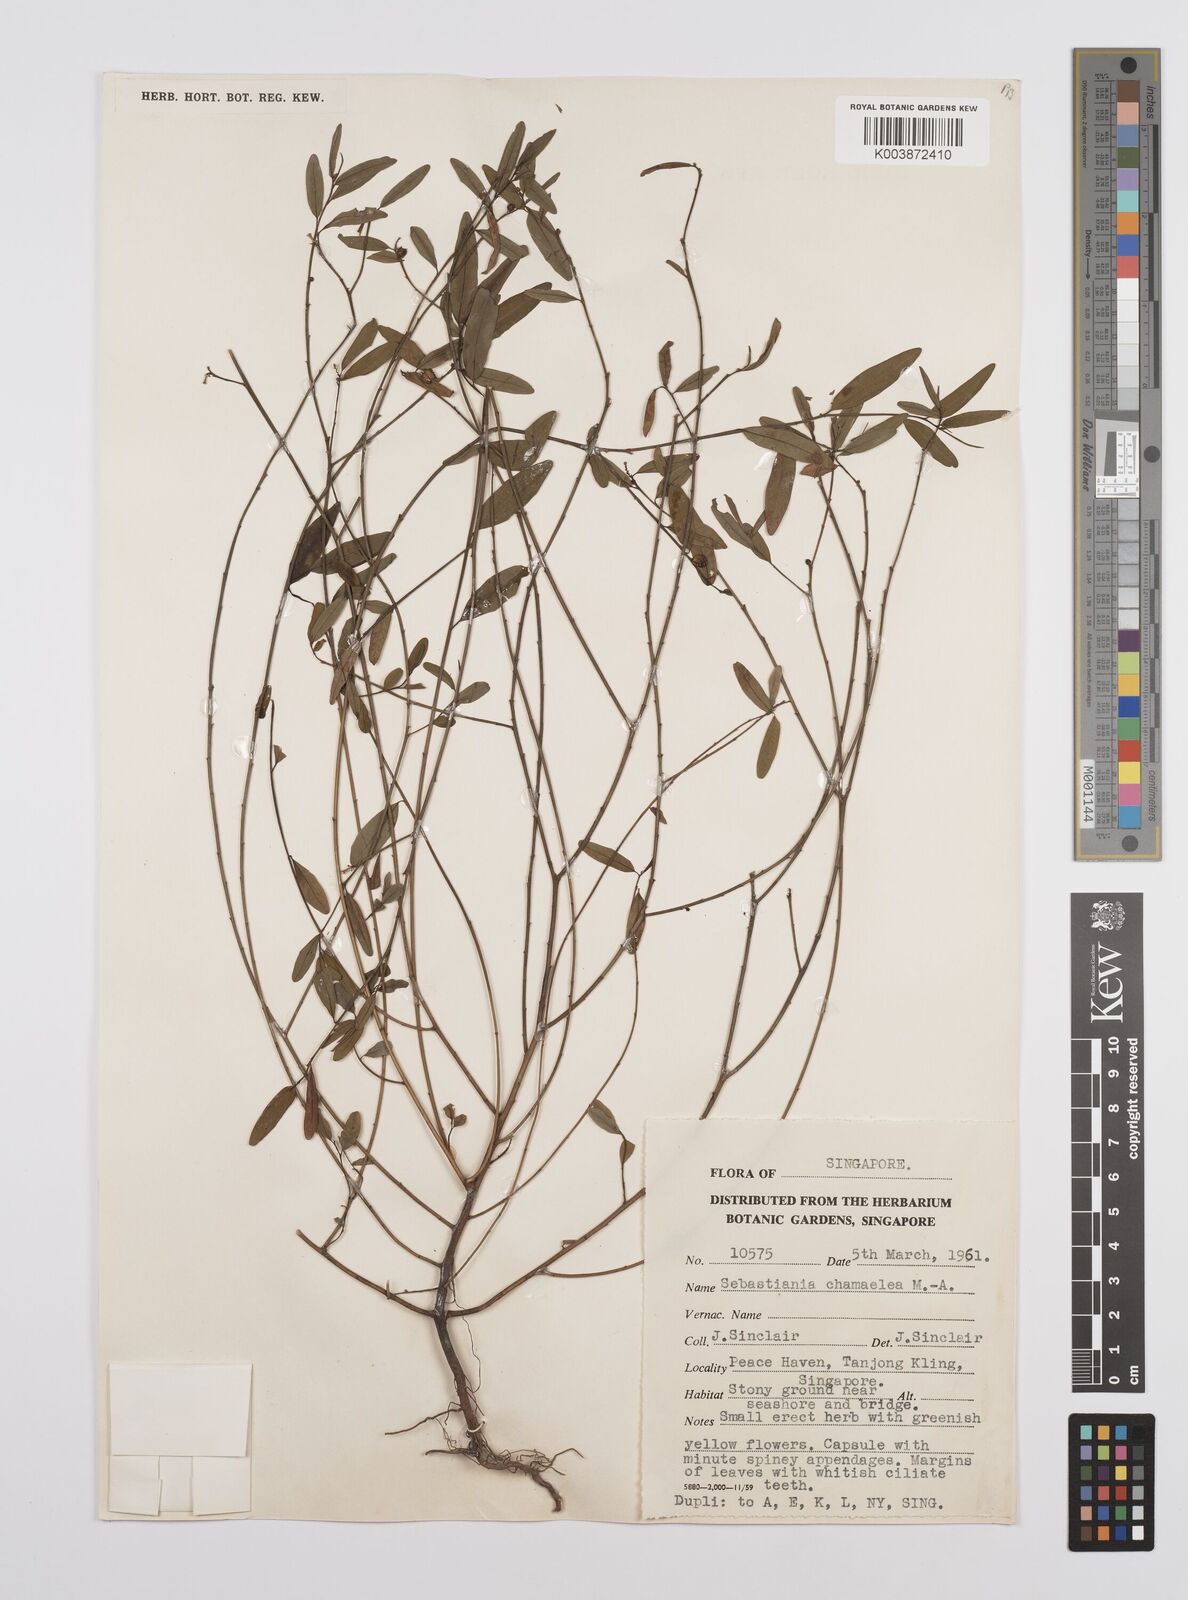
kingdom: Plantae
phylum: Tracheophyta
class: Magnoliopsida
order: Malpighiales
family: Euphorbiaceae
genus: Microstachys
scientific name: Microstachys chamaelea
